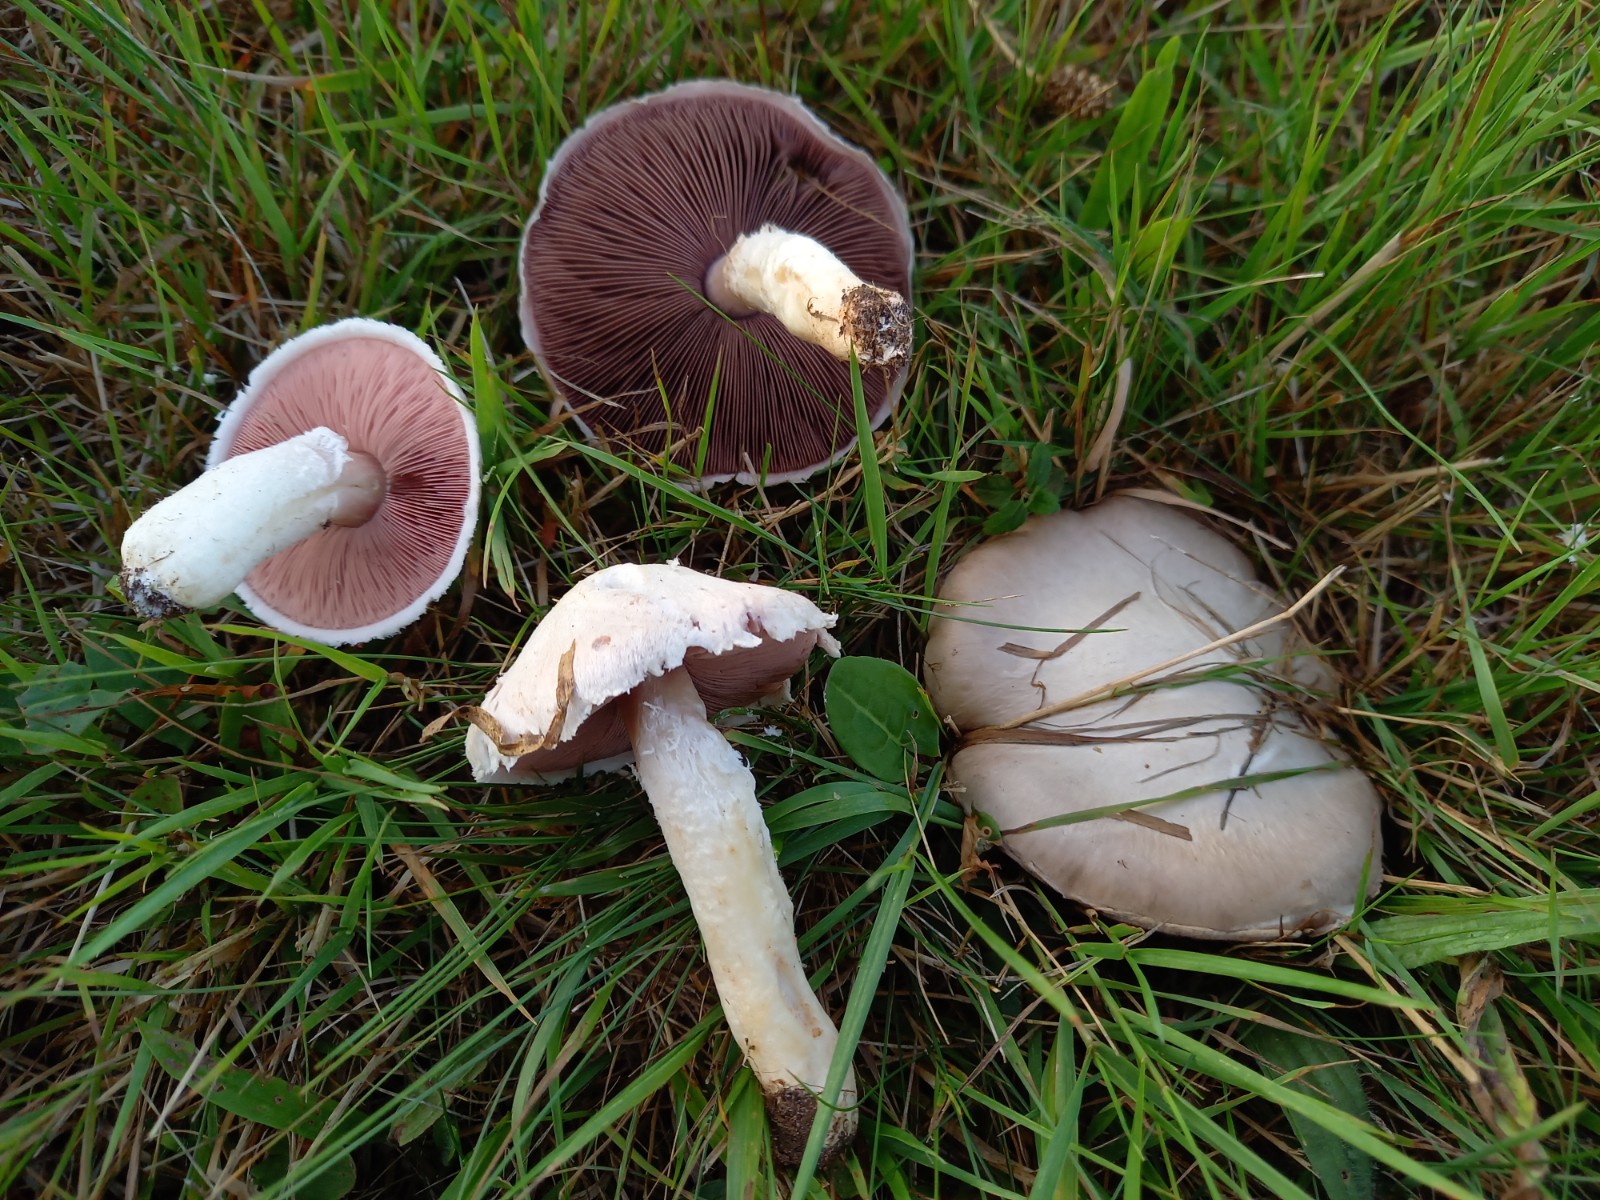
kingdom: Fungi
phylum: Basidiomycota
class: Agaricomycetes
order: Agaricales
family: Agaricaceae
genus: Agaricus
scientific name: Agaricus campestris
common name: mark-champignon
